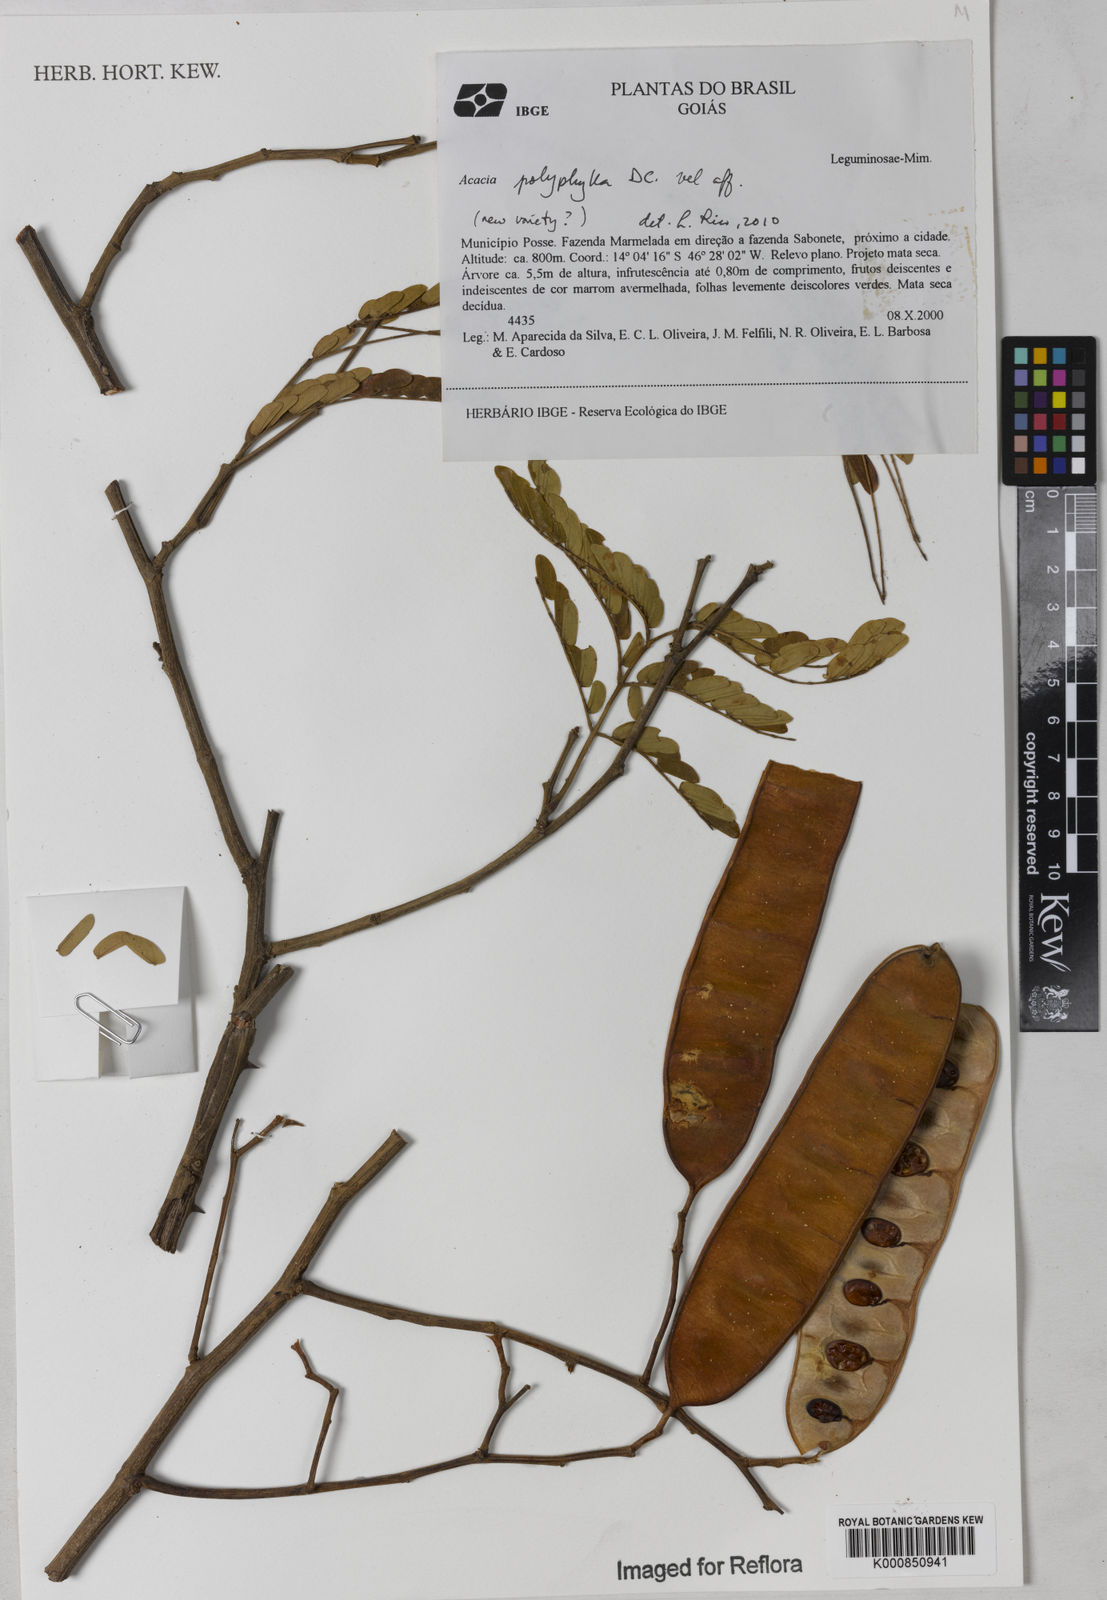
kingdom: Plantae
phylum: Tracheophyta
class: Magnoliopsida
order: Fabales
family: Fabaceae
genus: Senegalia
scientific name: Senegalia polyphylla
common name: White-tamarind
